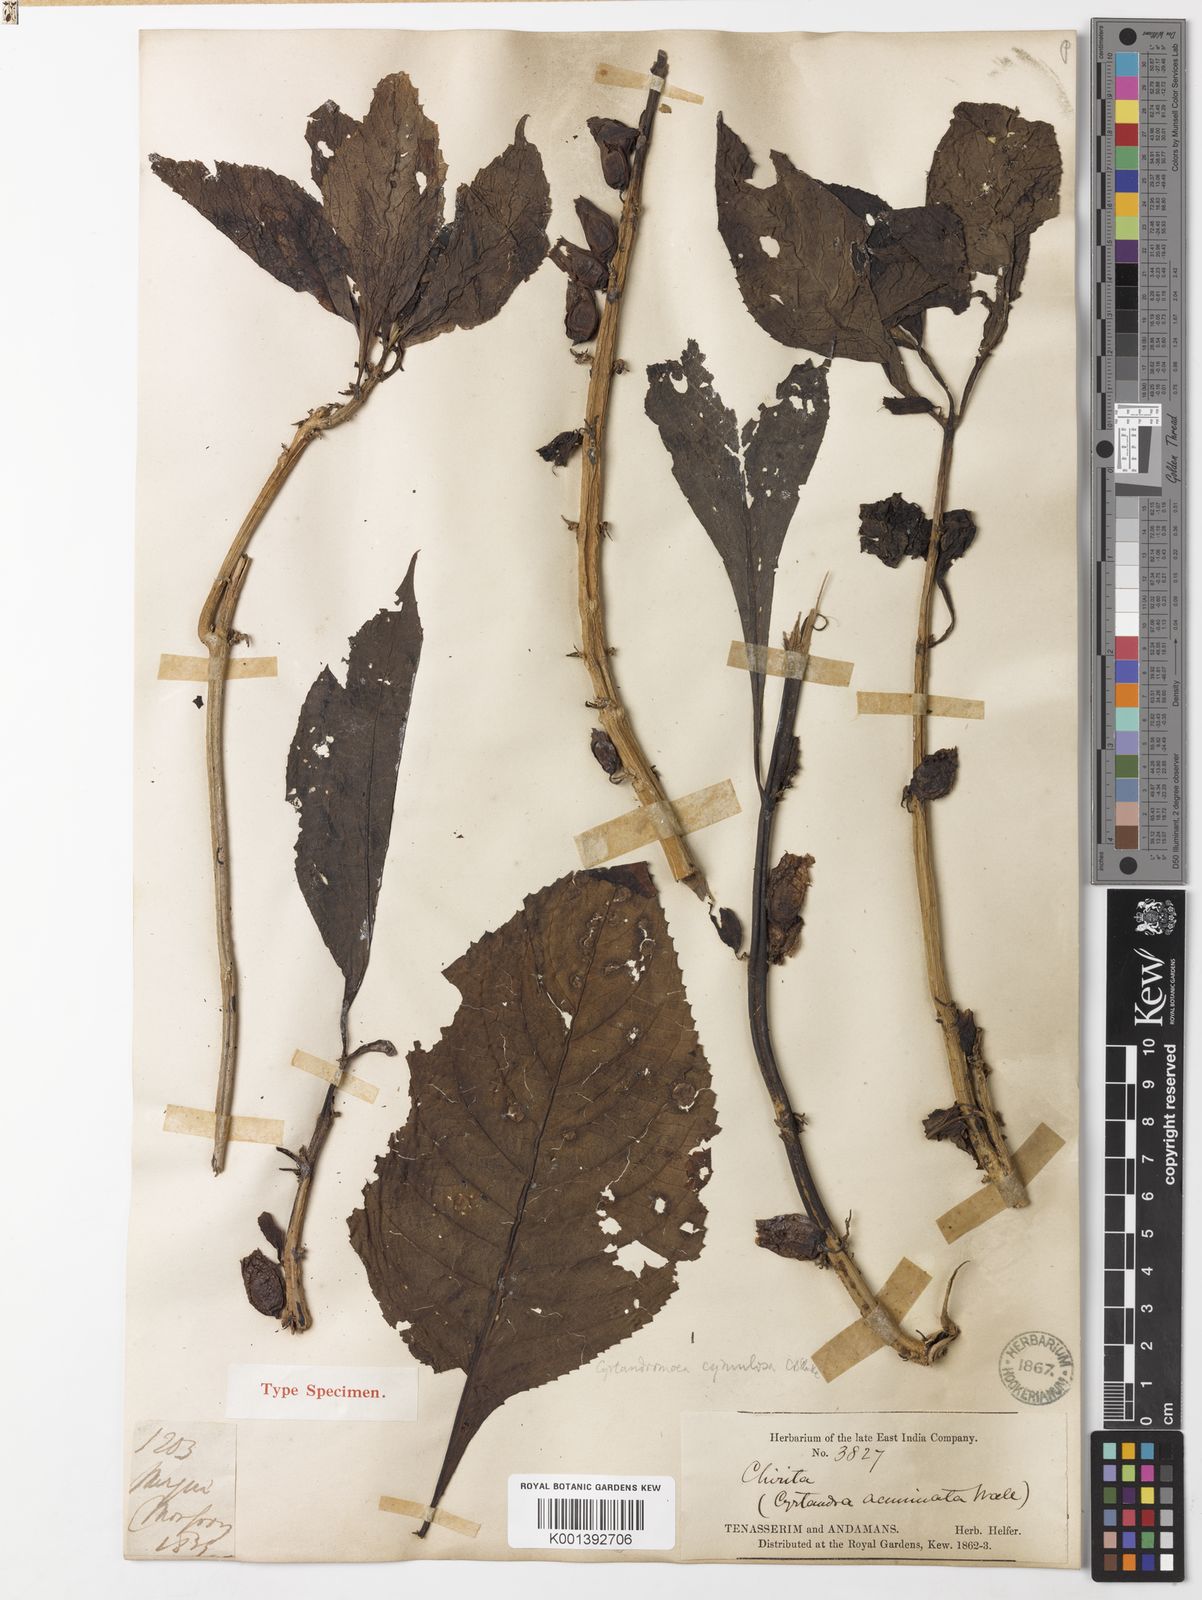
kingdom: Plantae
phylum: Tracheophyta
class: Magnoliopsida
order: Lamiales
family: Phrymaceae
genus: Cyrtandromoea
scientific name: Cyrtandromoea subsessilis
